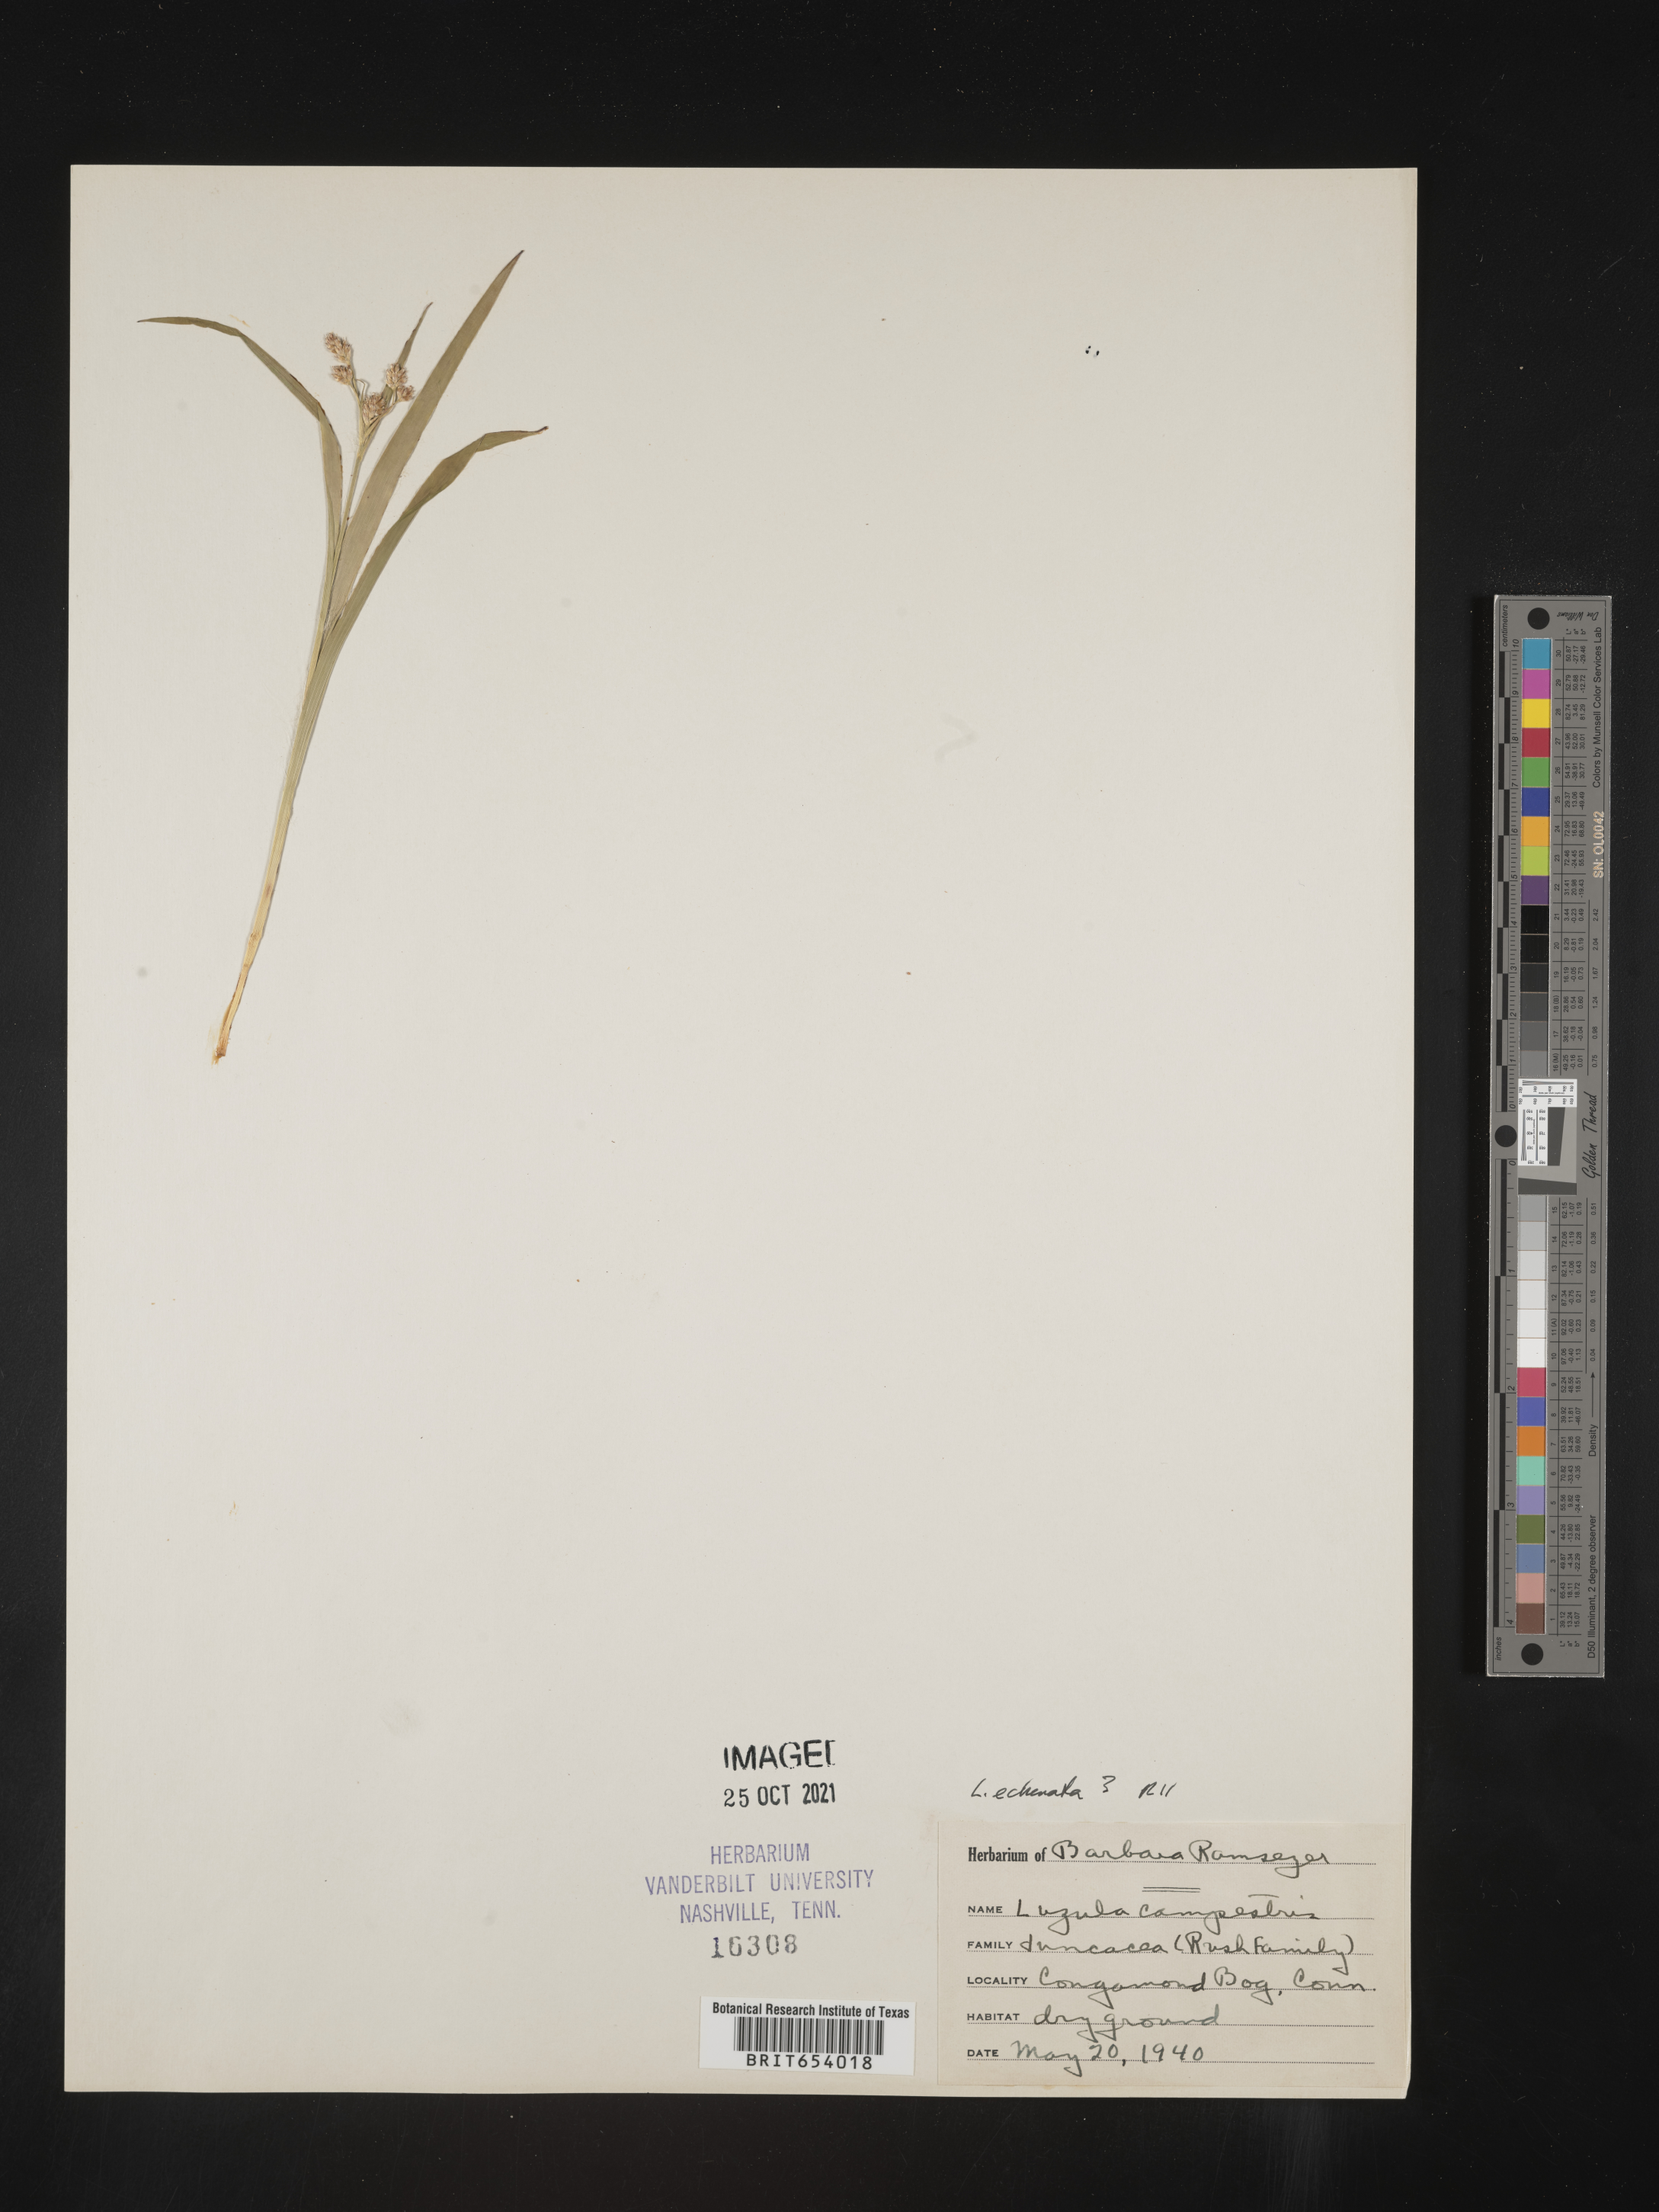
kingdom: Plantae
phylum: Tracheophyta
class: Liliopsida
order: Poales
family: Juncaceae
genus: Luzula
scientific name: Luzula echinata
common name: Hedgehog woodrush
